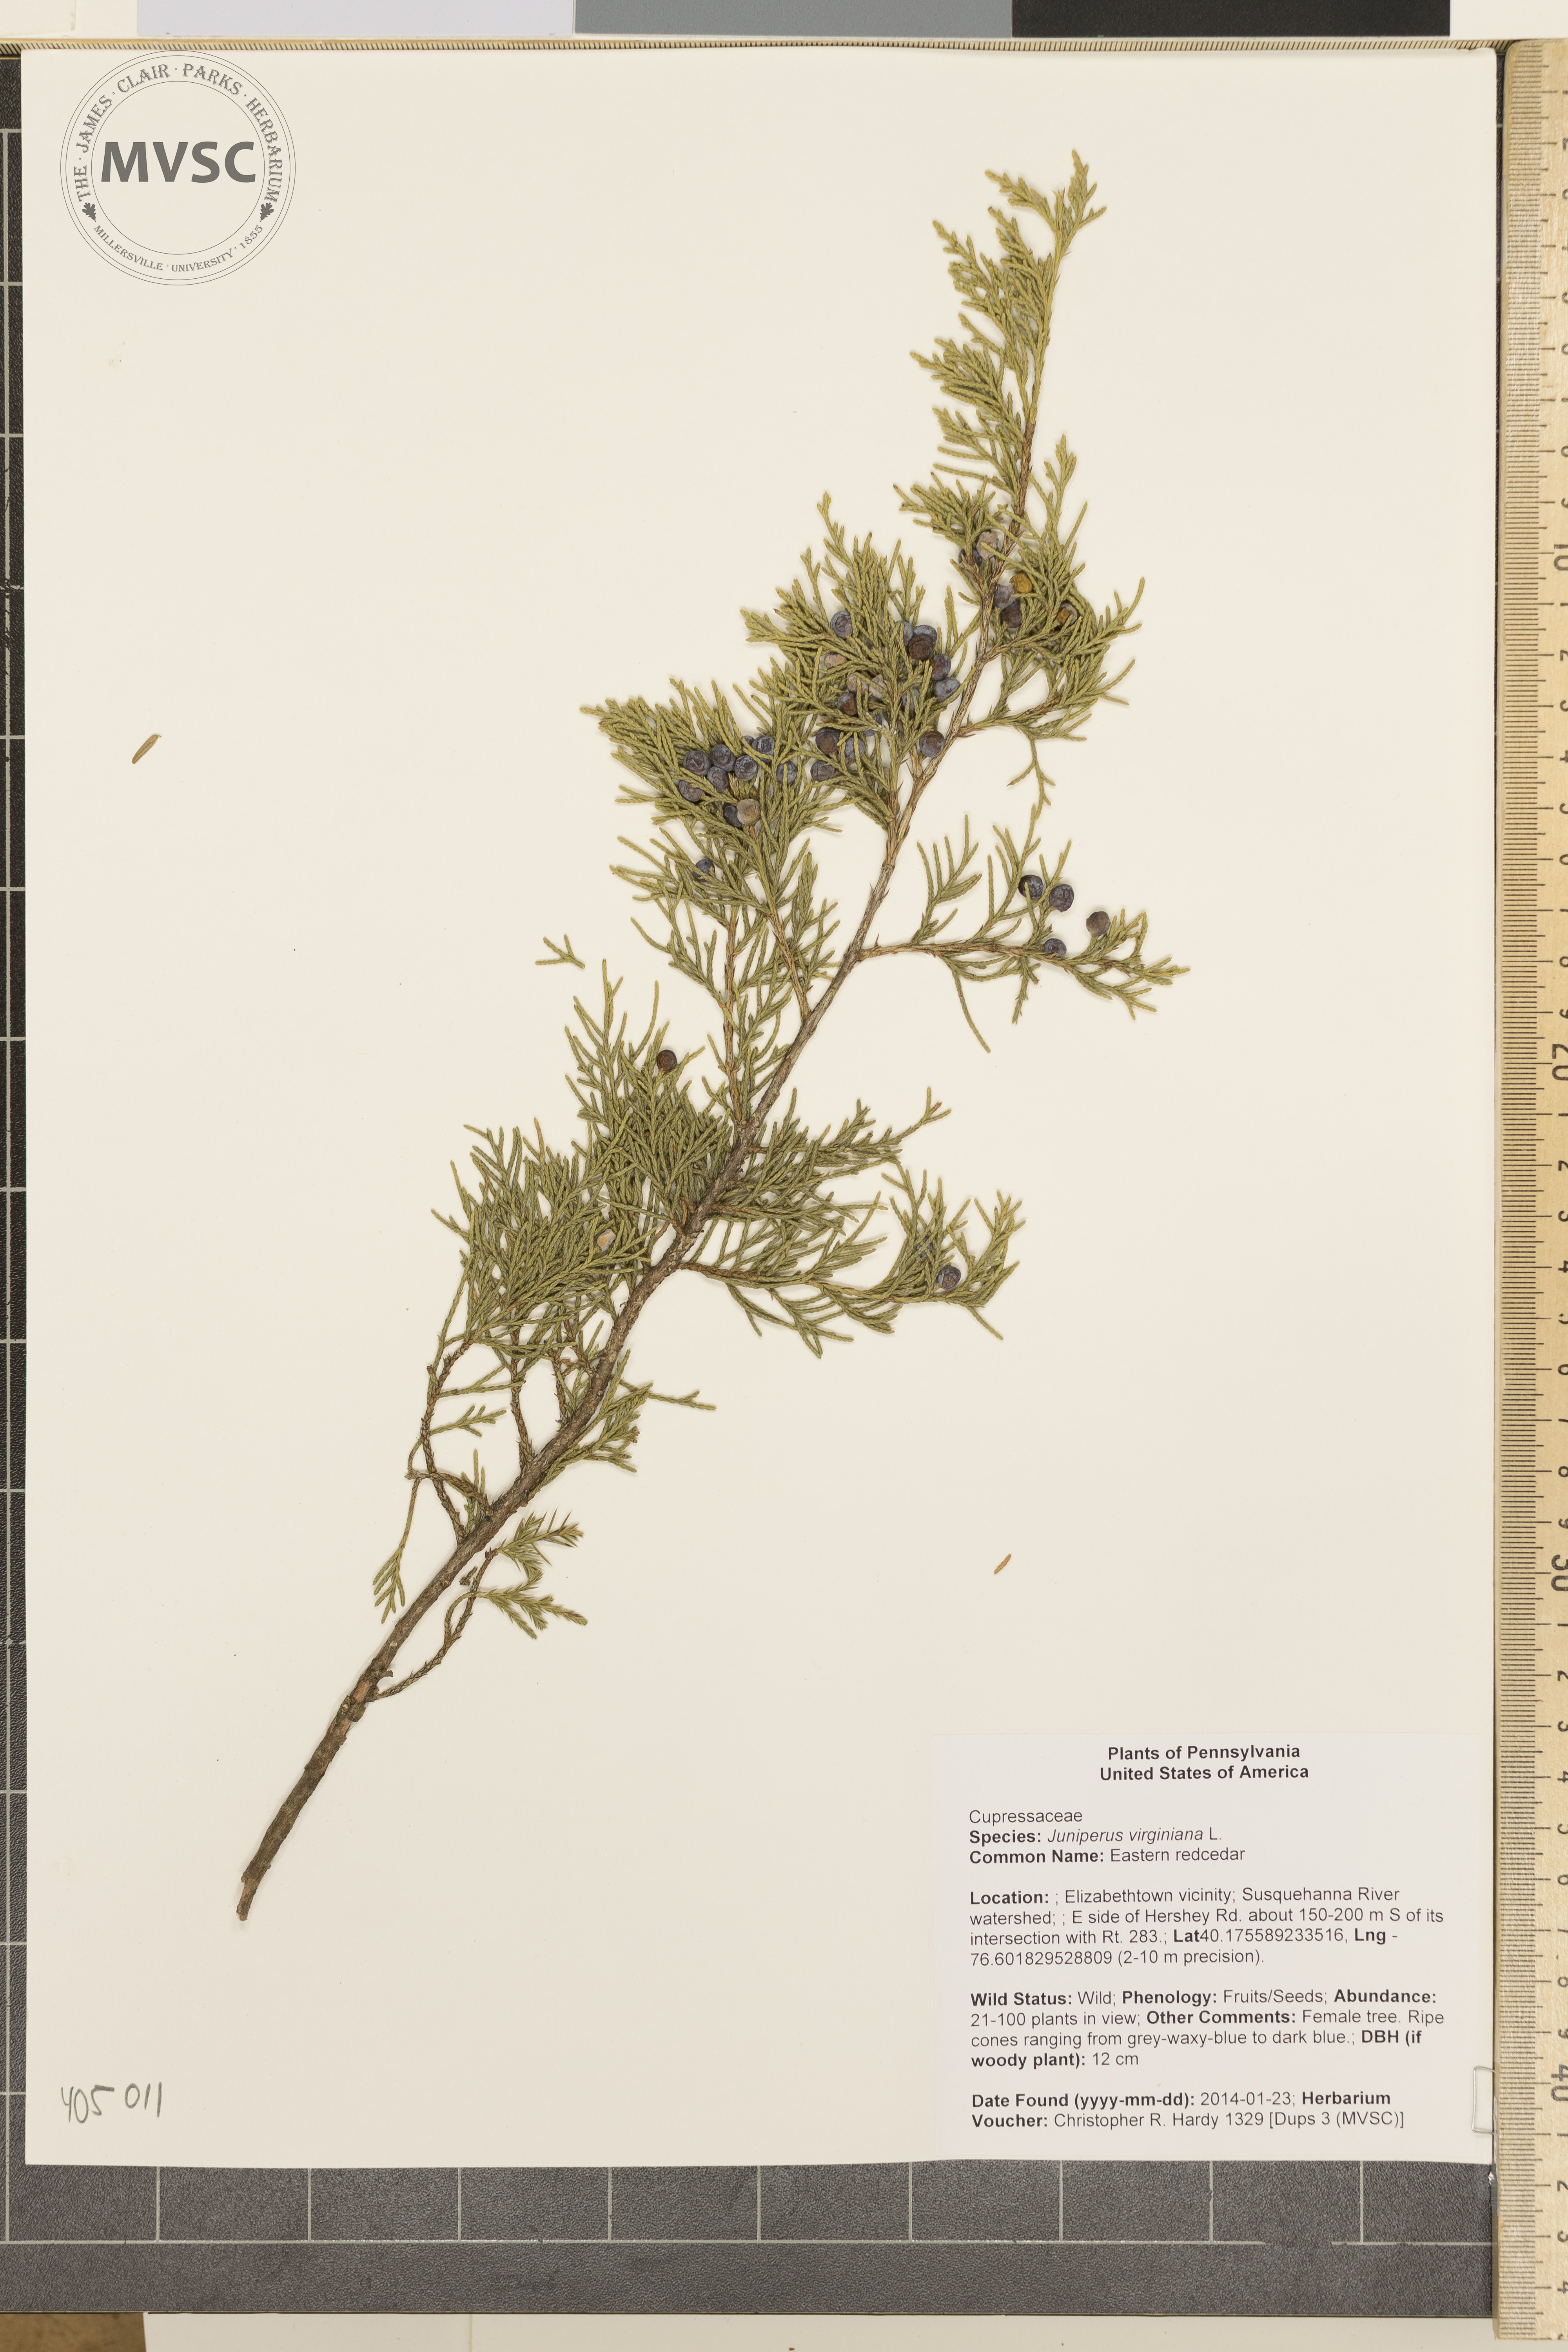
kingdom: Plantae
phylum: Tracheophyta
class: Pinopsida
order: Pinales
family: Cupressaceae
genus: Juniperus
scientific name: Juniperus virginiana
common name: Eastern redcedar
